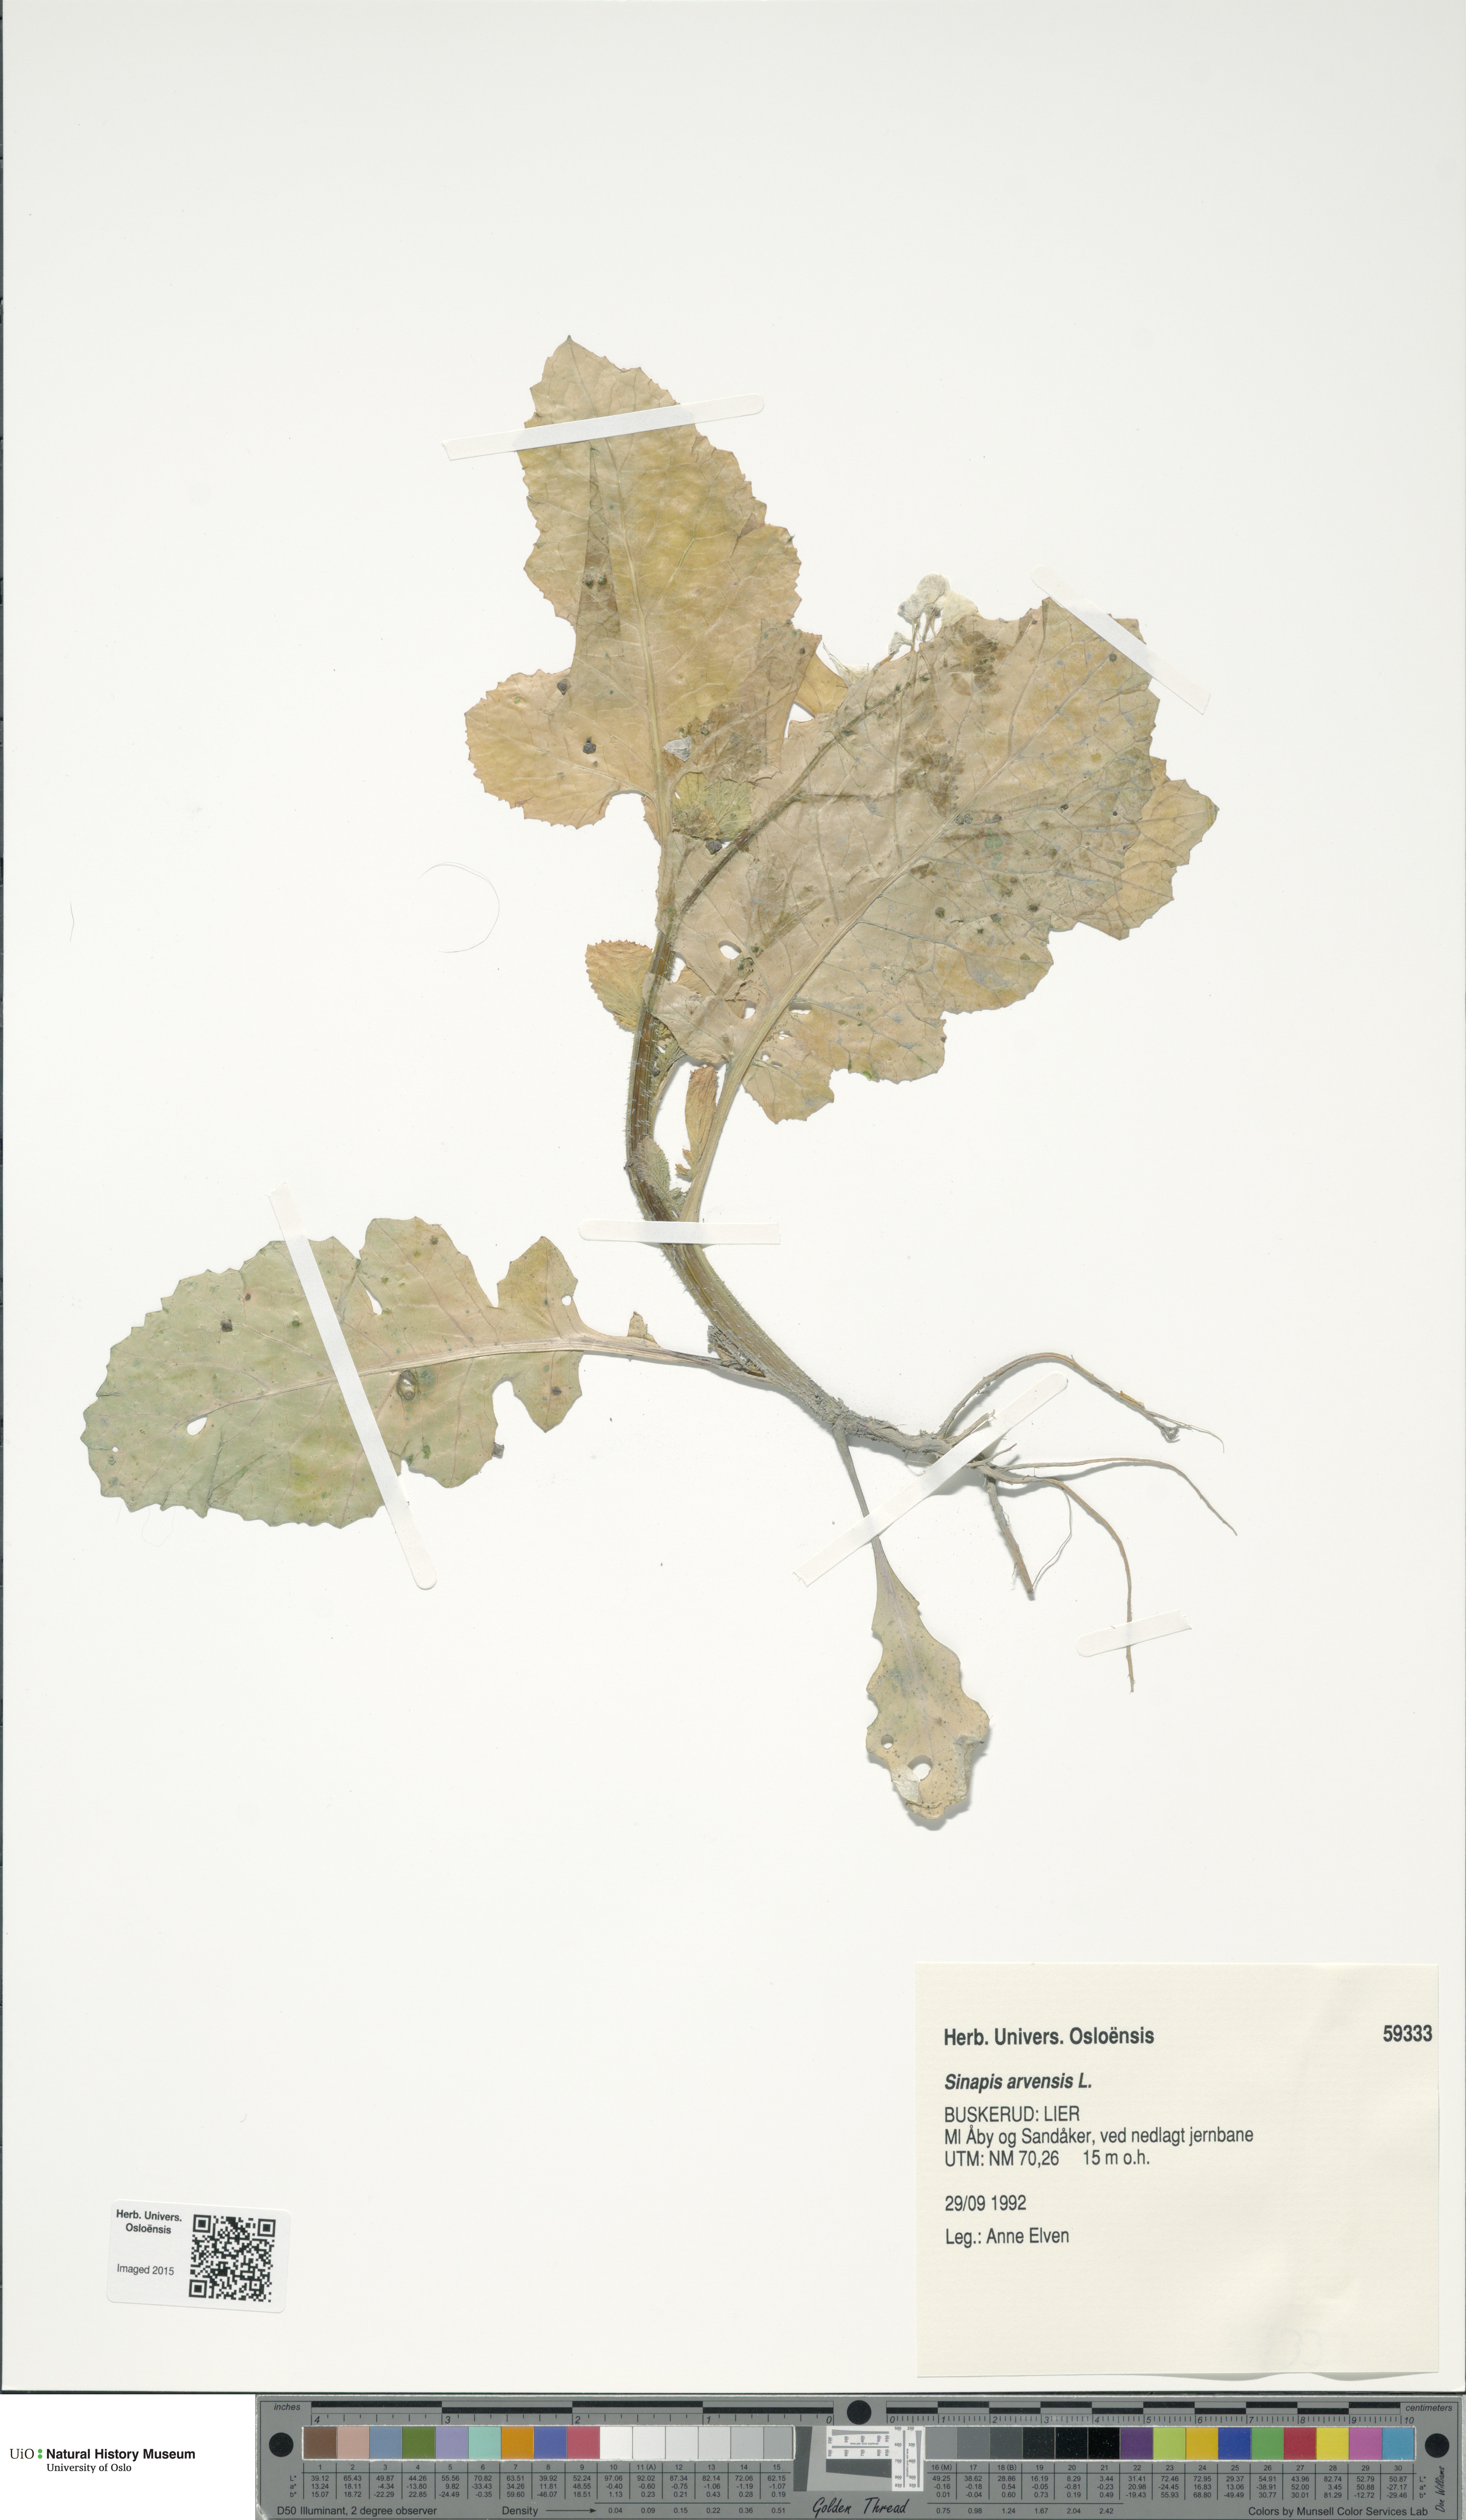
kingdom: Plantae
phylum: Tracheophyta
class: Magnoliopsida
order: Brassicales
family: Brassicaceae
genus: Sinapis
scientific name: Sinapis arvensis
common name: Charlock
